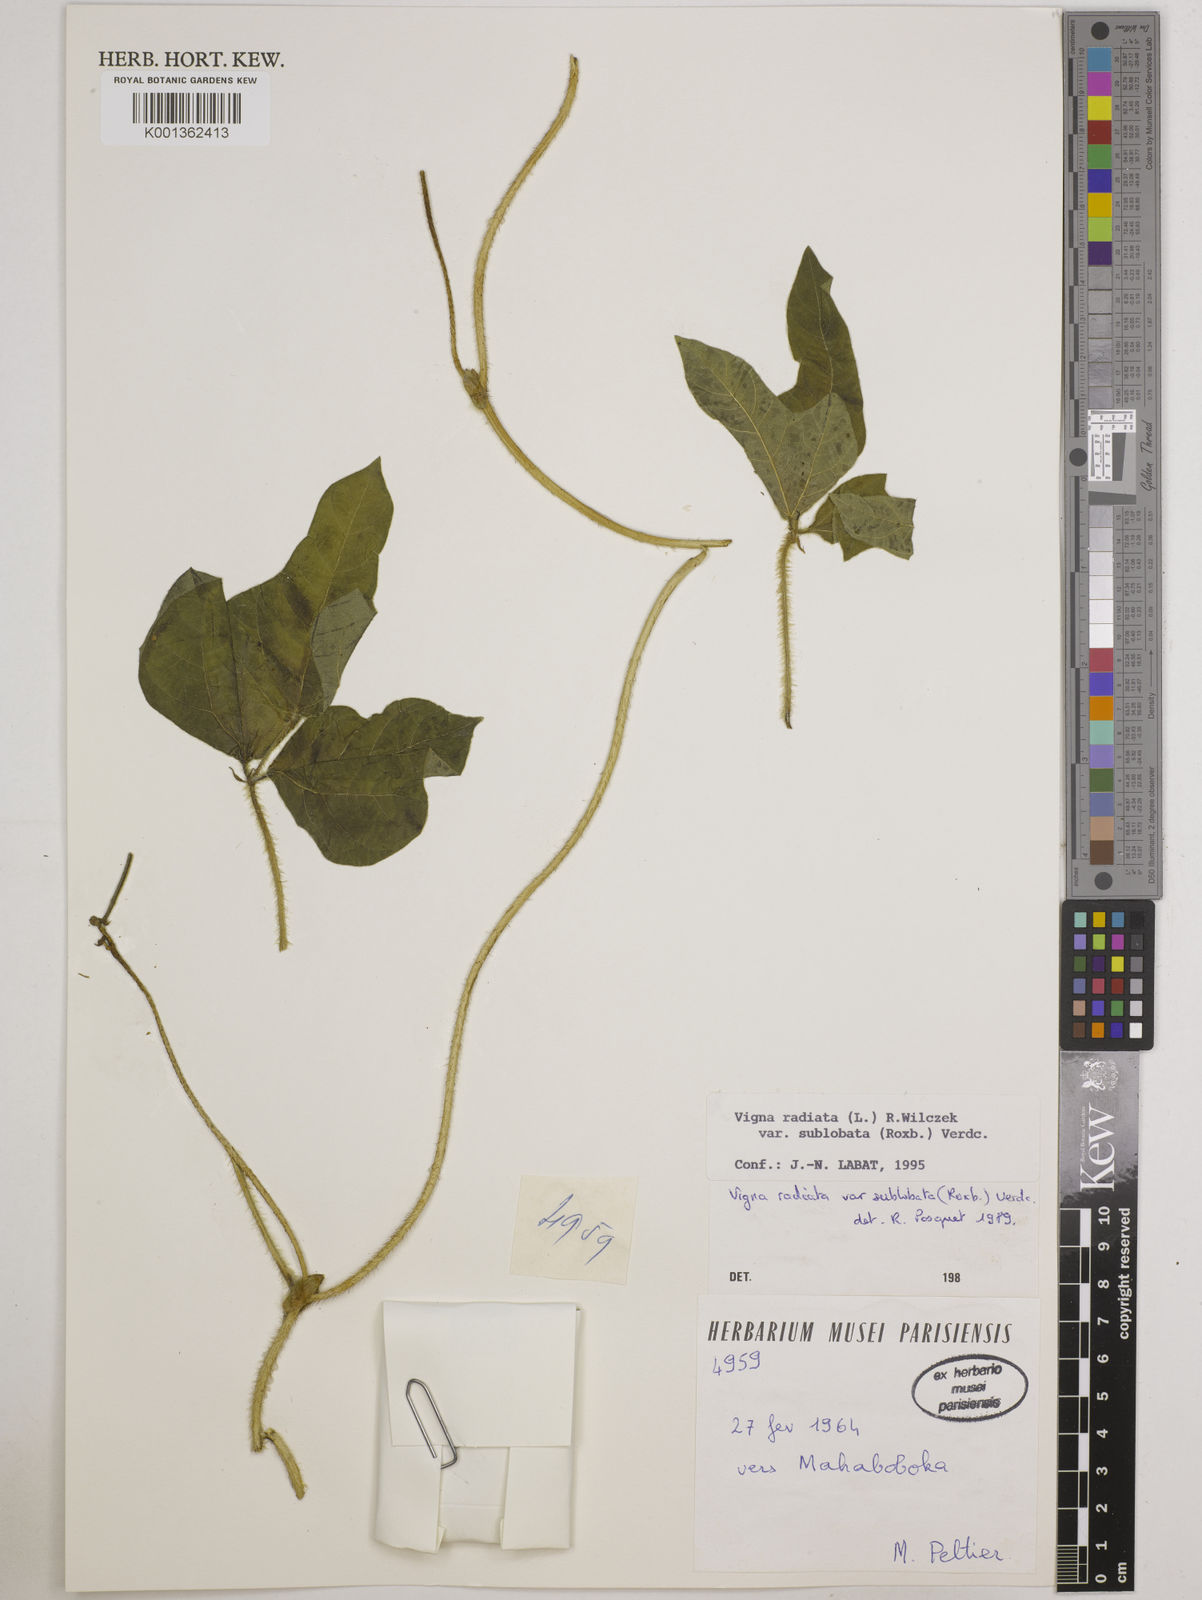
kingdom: Plantae
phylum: Tracheophyta
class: Magnoliopsida
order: Fabales
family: Fabaceae
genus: Vigna
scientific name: Vigna radiata
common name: Mung-bean
